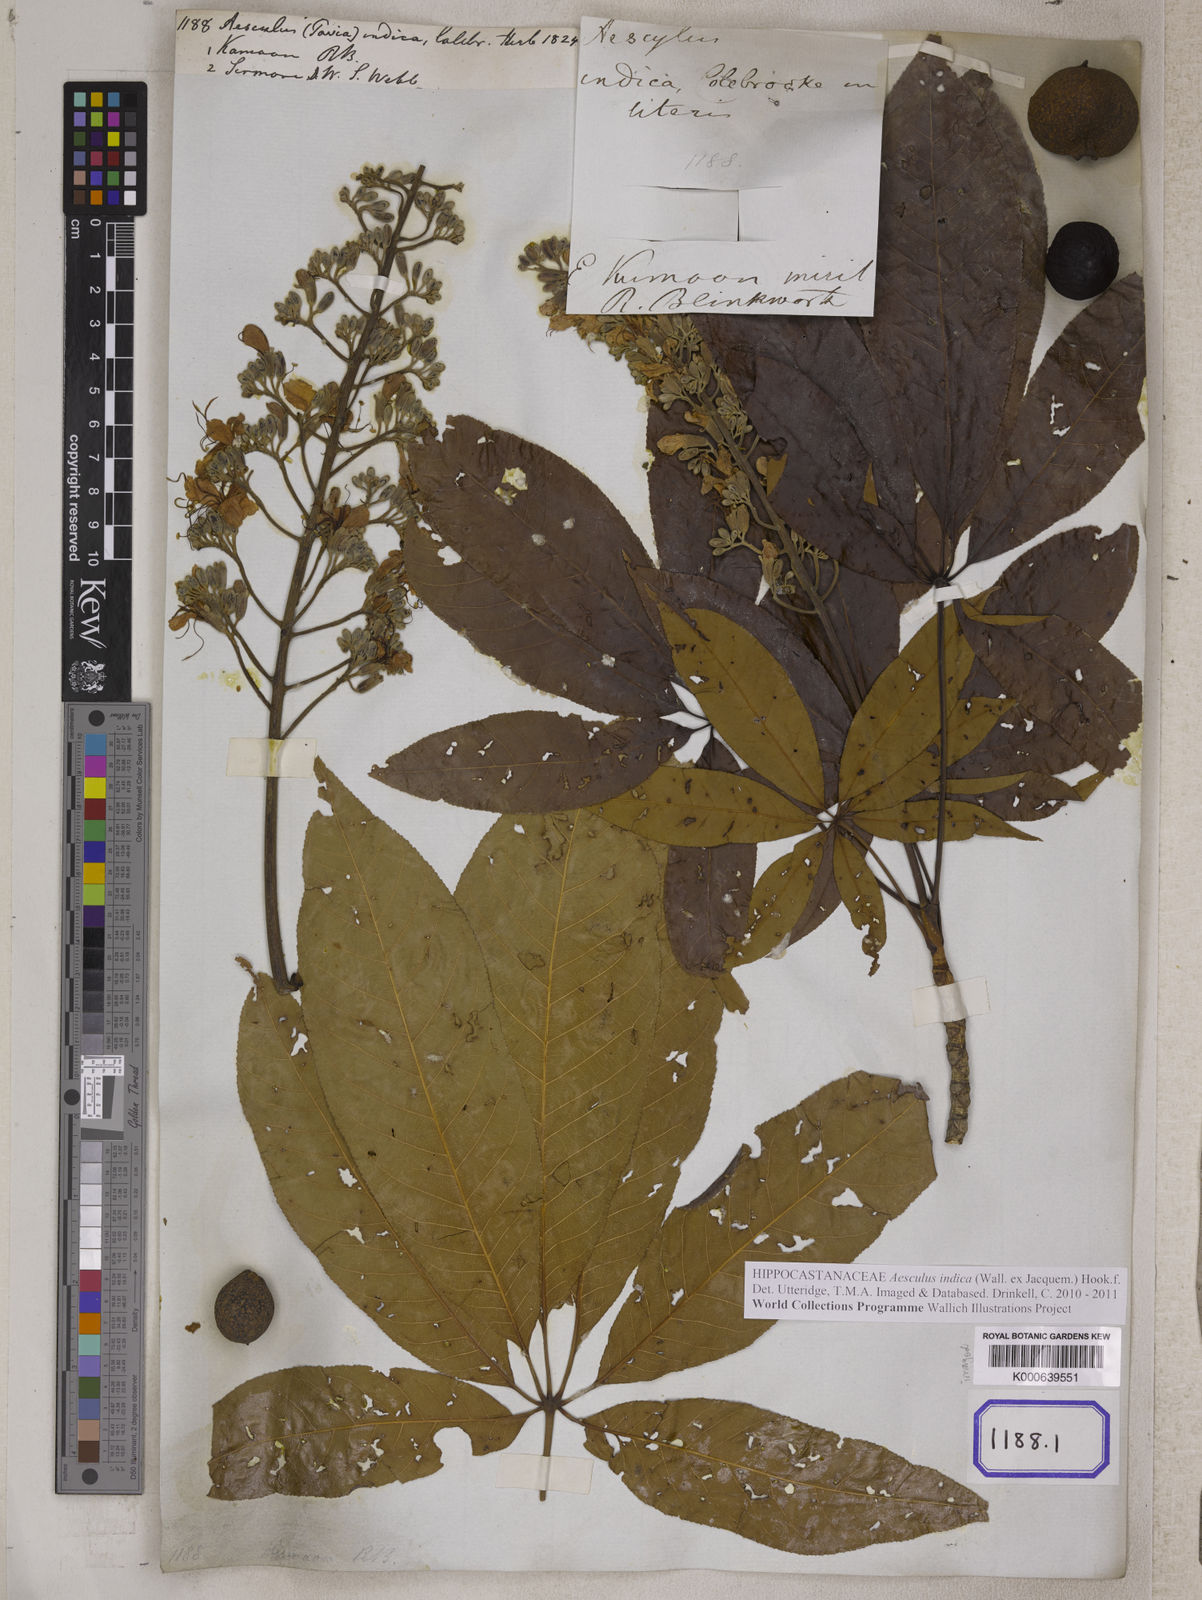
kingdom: Plantae
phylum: Tracheophyta
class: Magnoliopsida
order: Sapindales
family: Sapindaceae
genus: Aesculus
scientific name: Aesculus indica
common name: Indian horse-chestnut
